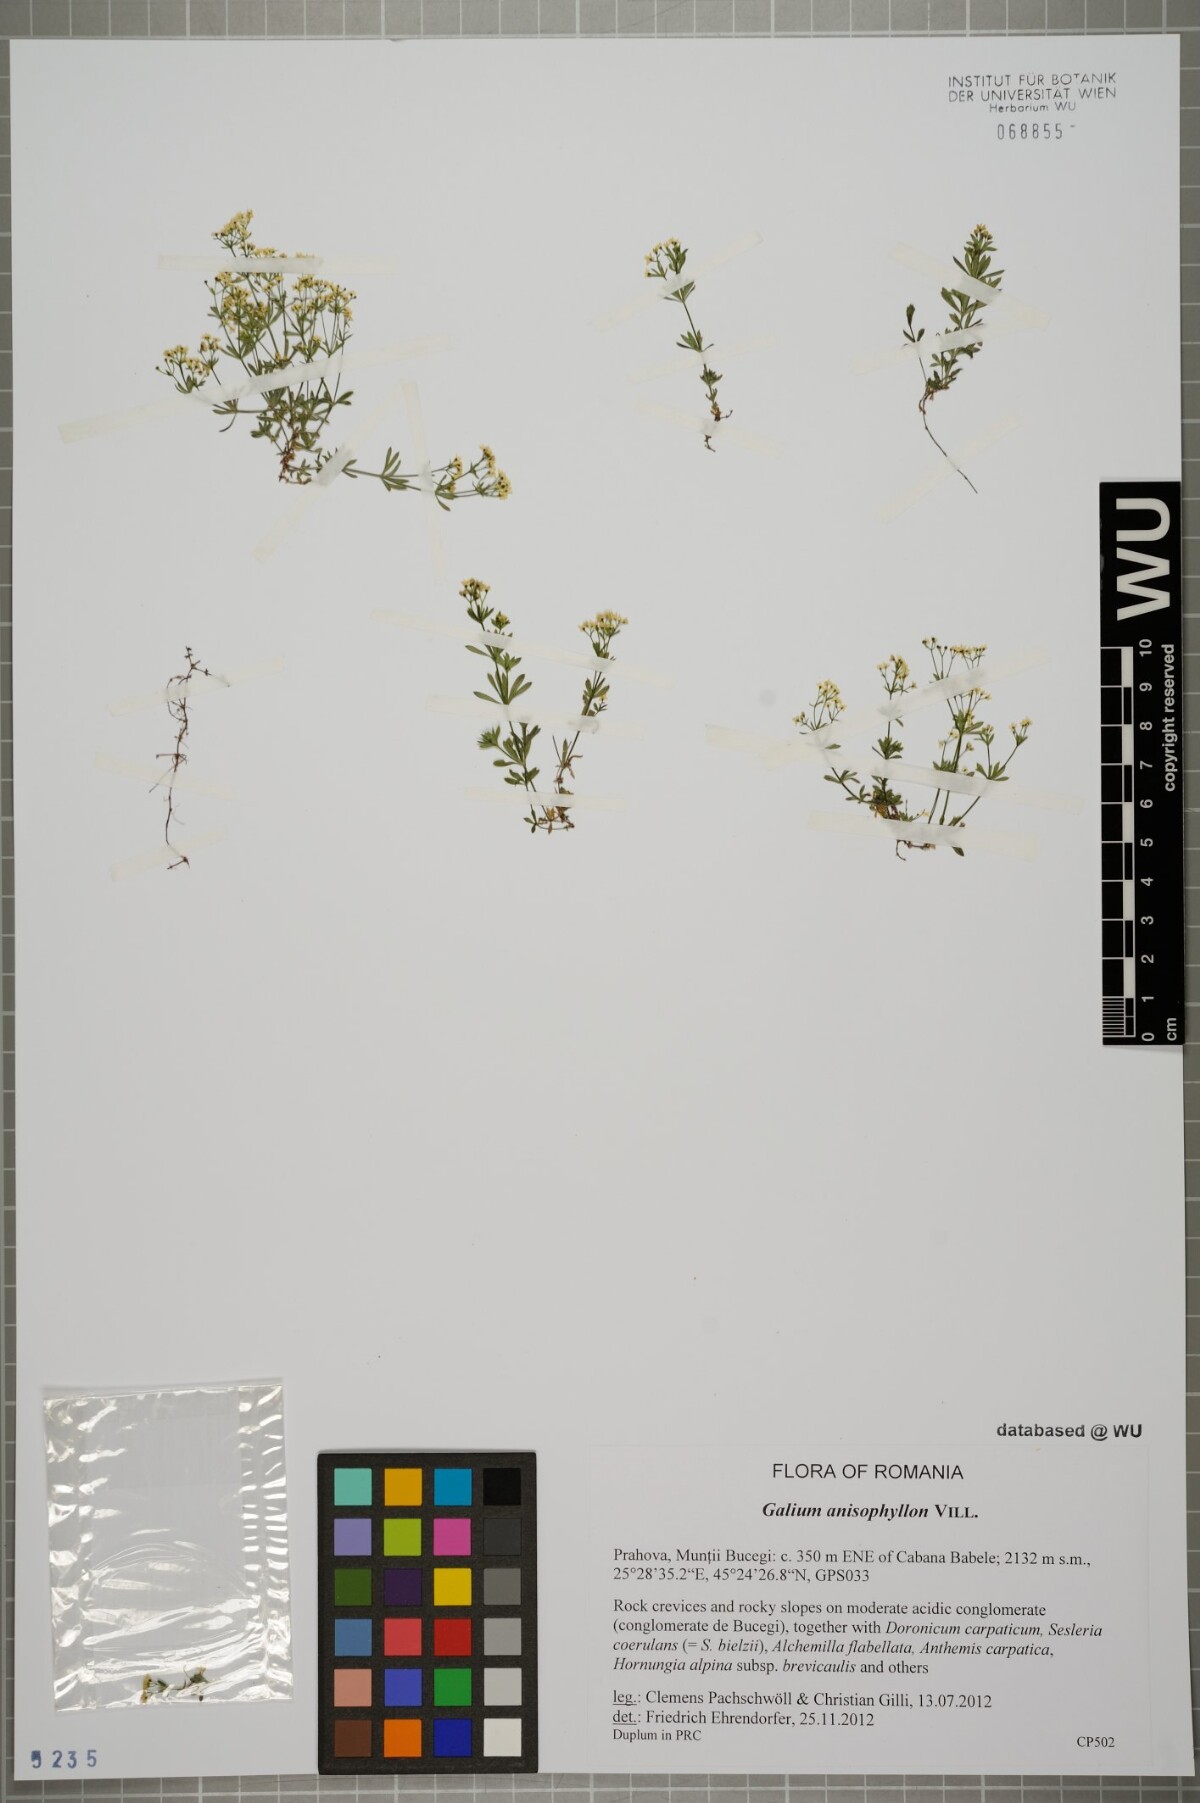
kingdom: Plantae
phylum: Tracheophyta
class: Magnoliopsida
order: Gentianales
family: Rubiaceae
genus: Galium
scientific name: Galium anisophyllon
